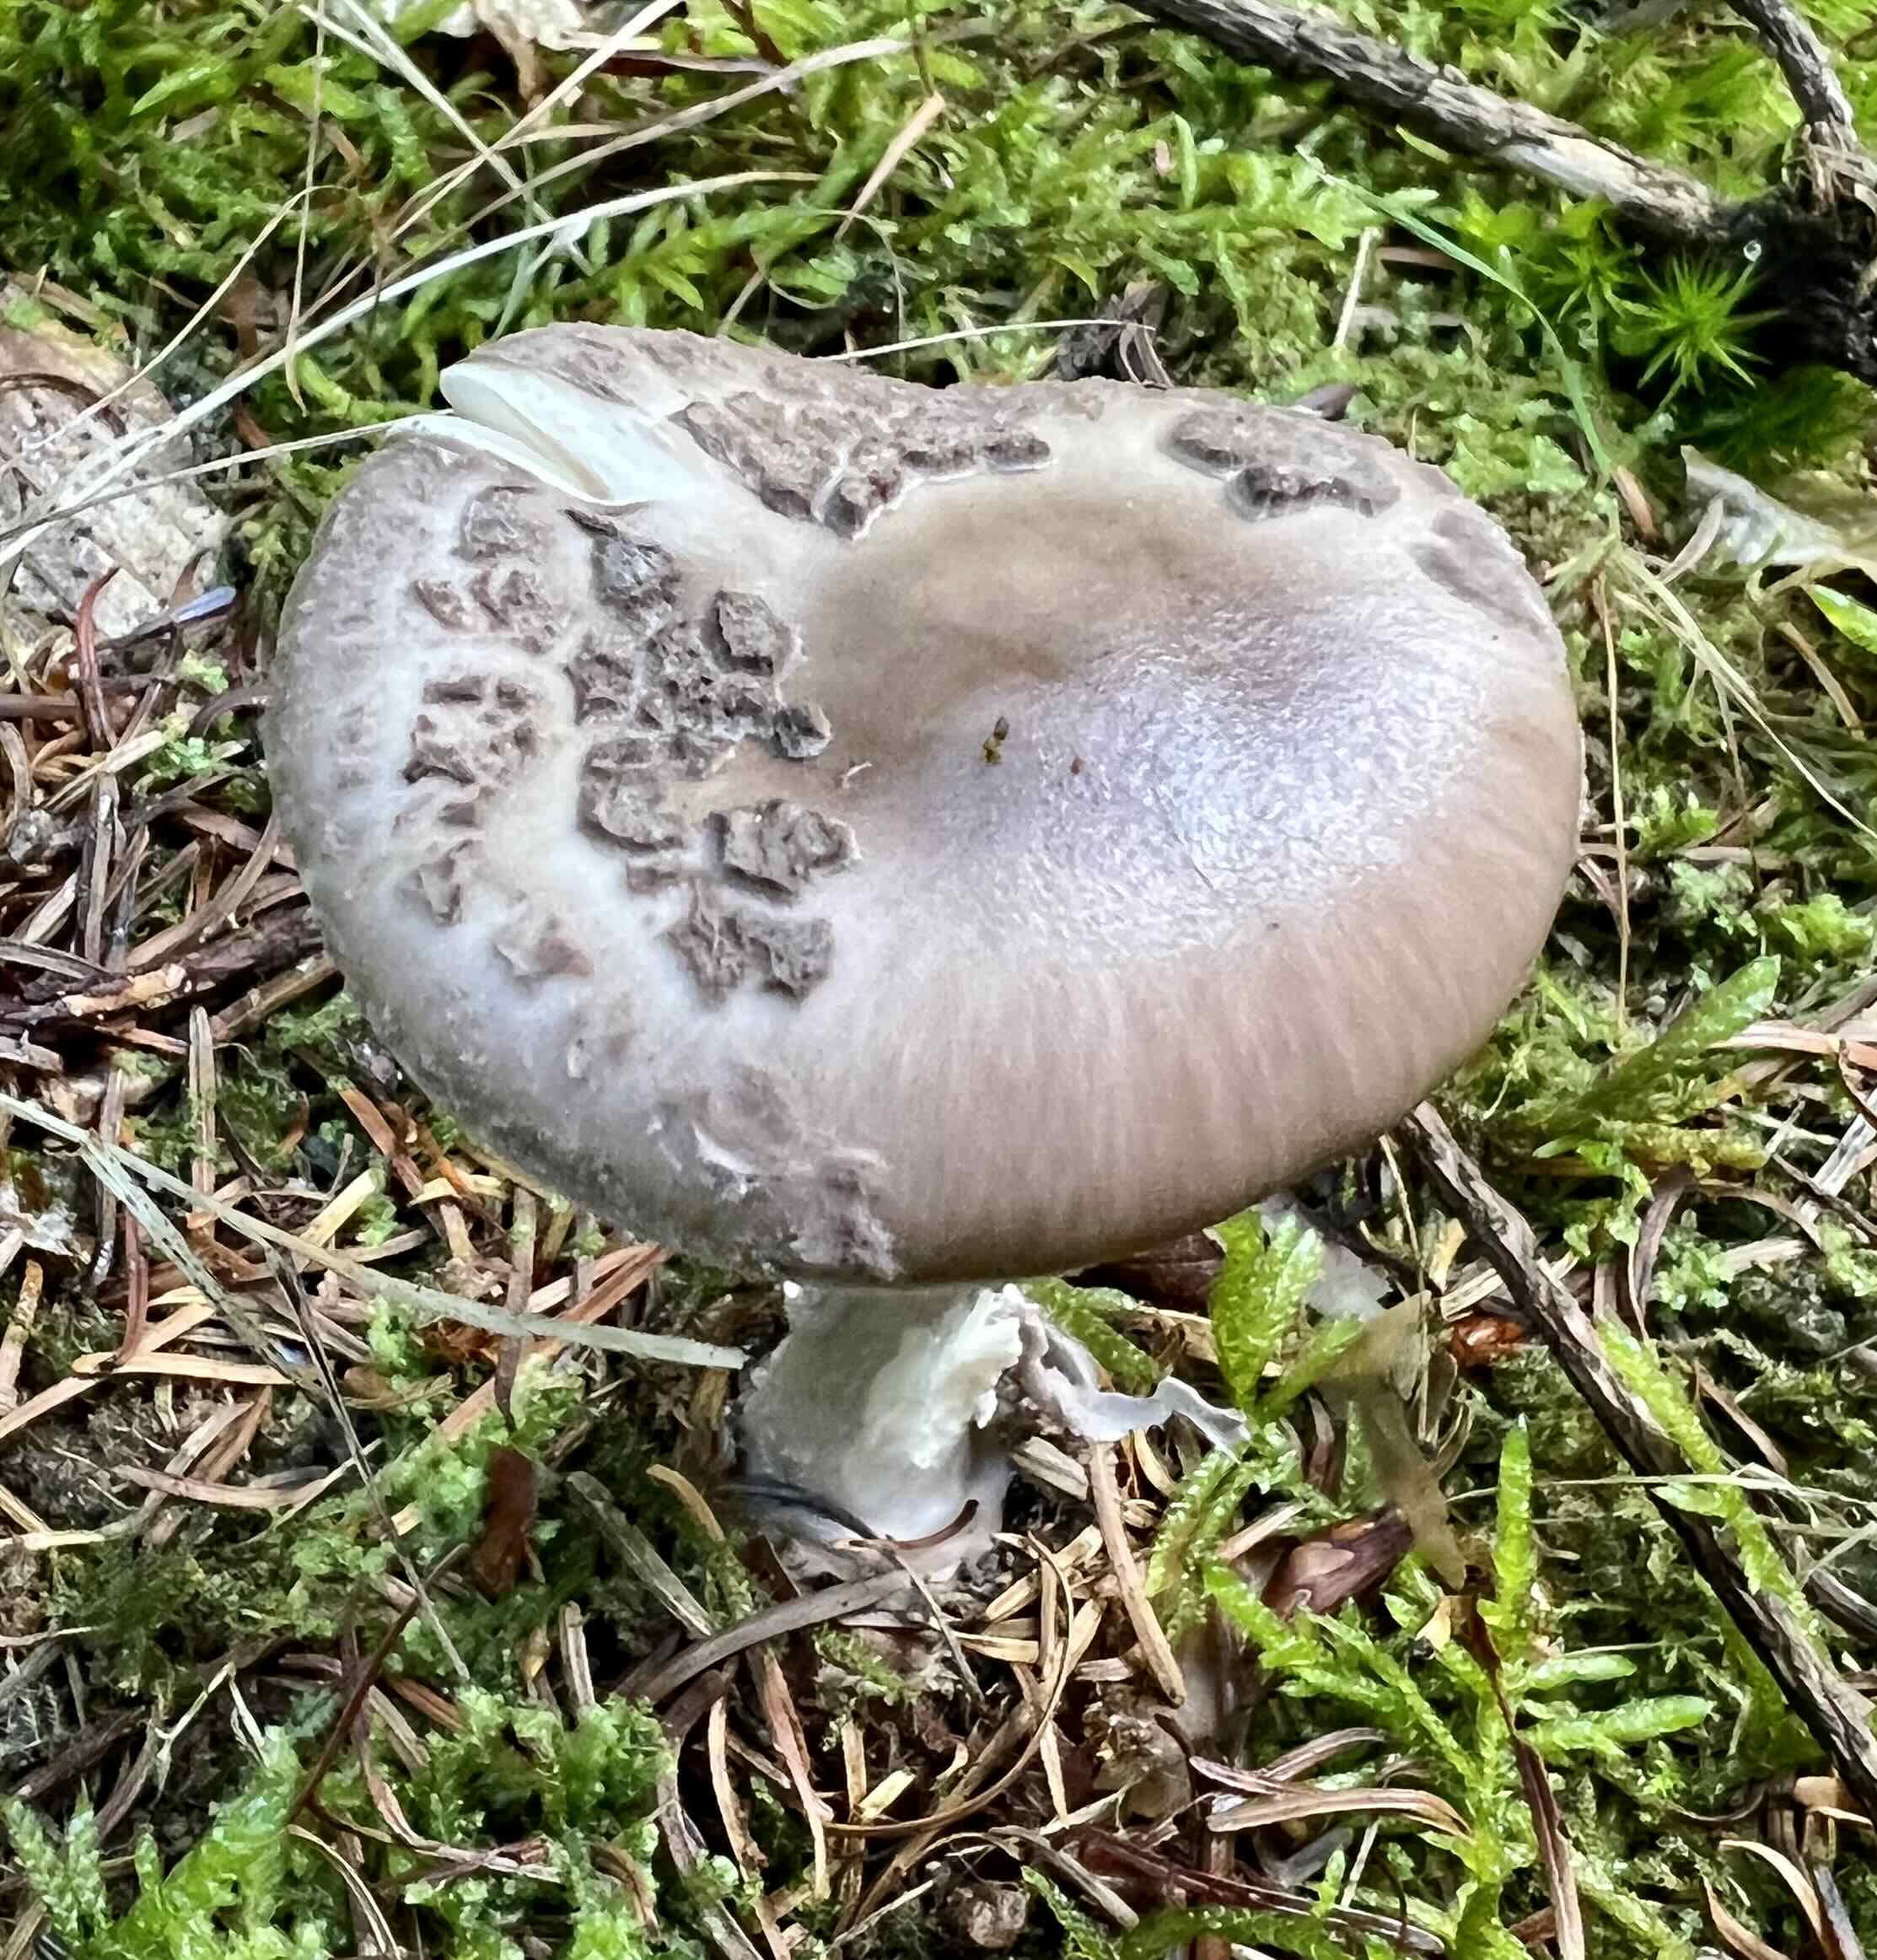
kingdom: Fungi
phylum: Basidiomycota
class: Agaricomycetes
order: Agaricales
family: Amanitaceae
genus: Amanita
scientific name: Amanita porphyria
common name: porfyr-fluesvamp
